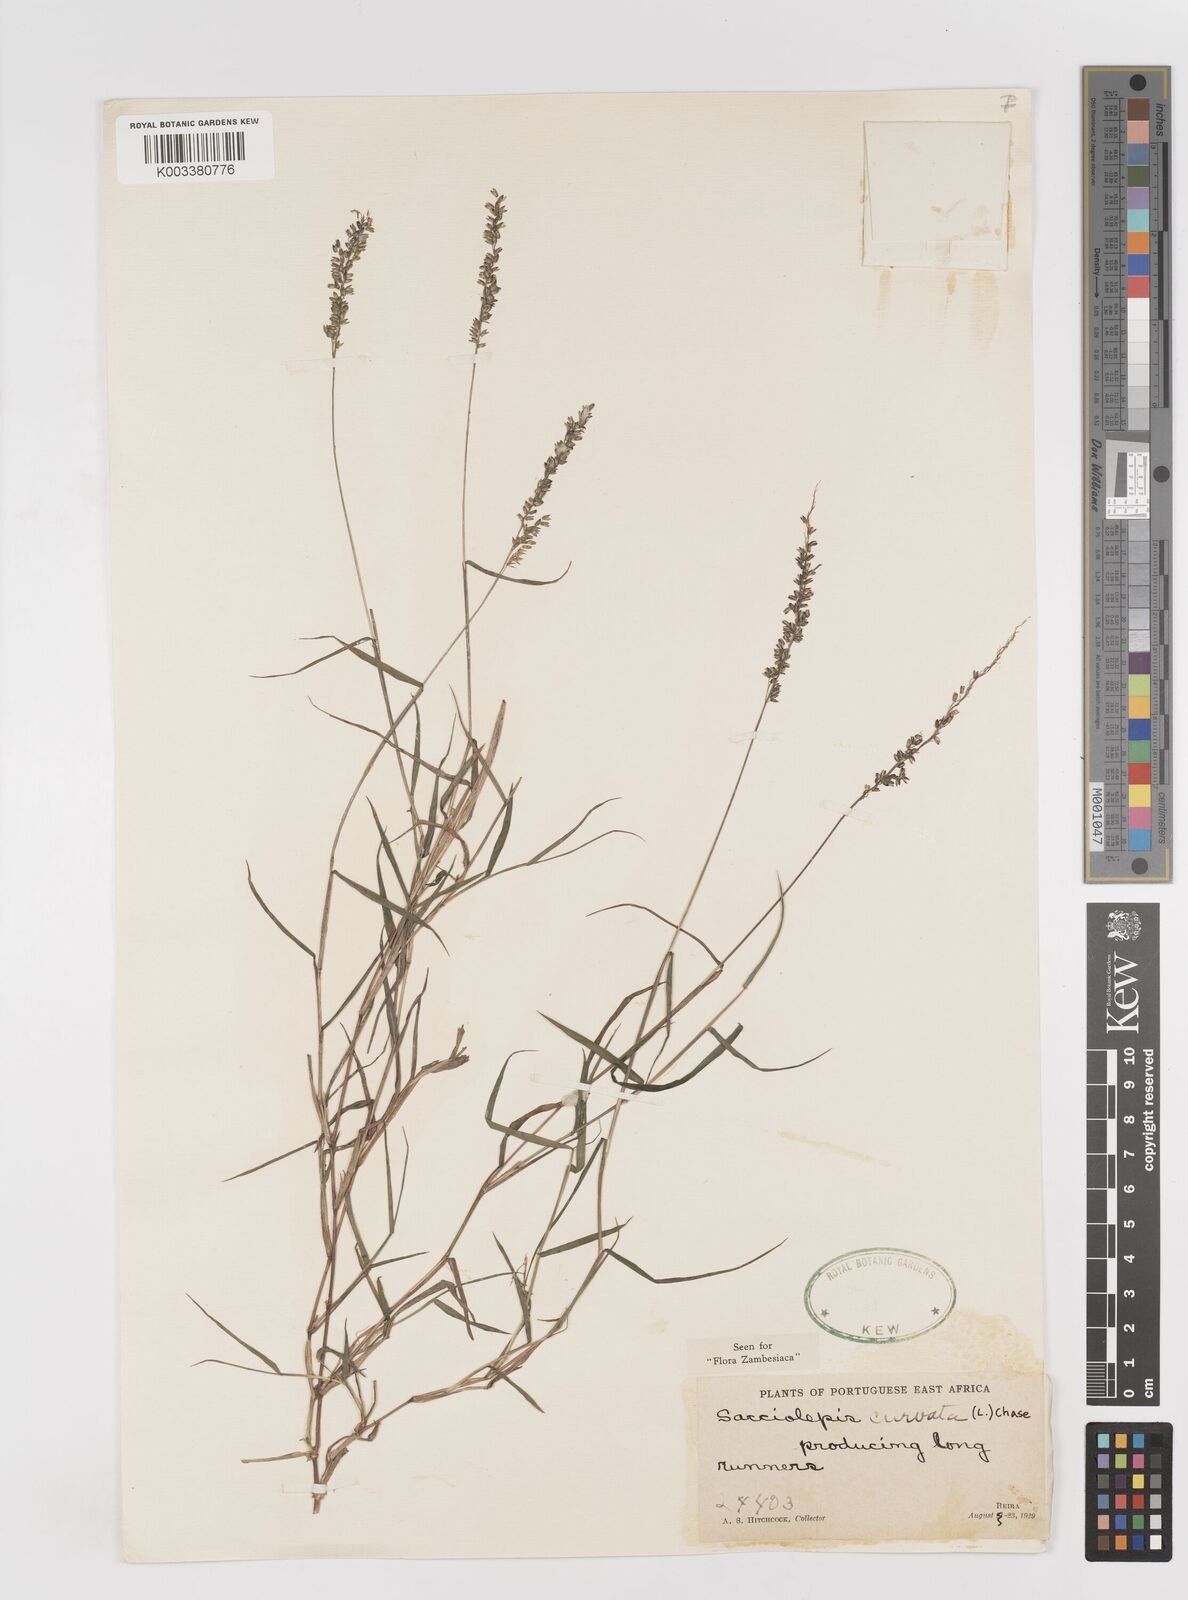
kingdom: Plantae
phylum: Tracheophyta
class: Liliopsida
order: Poales
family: Poaceae
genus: Sacciolepis
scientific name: Sacciolepis curvata
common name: Forest hood grass
